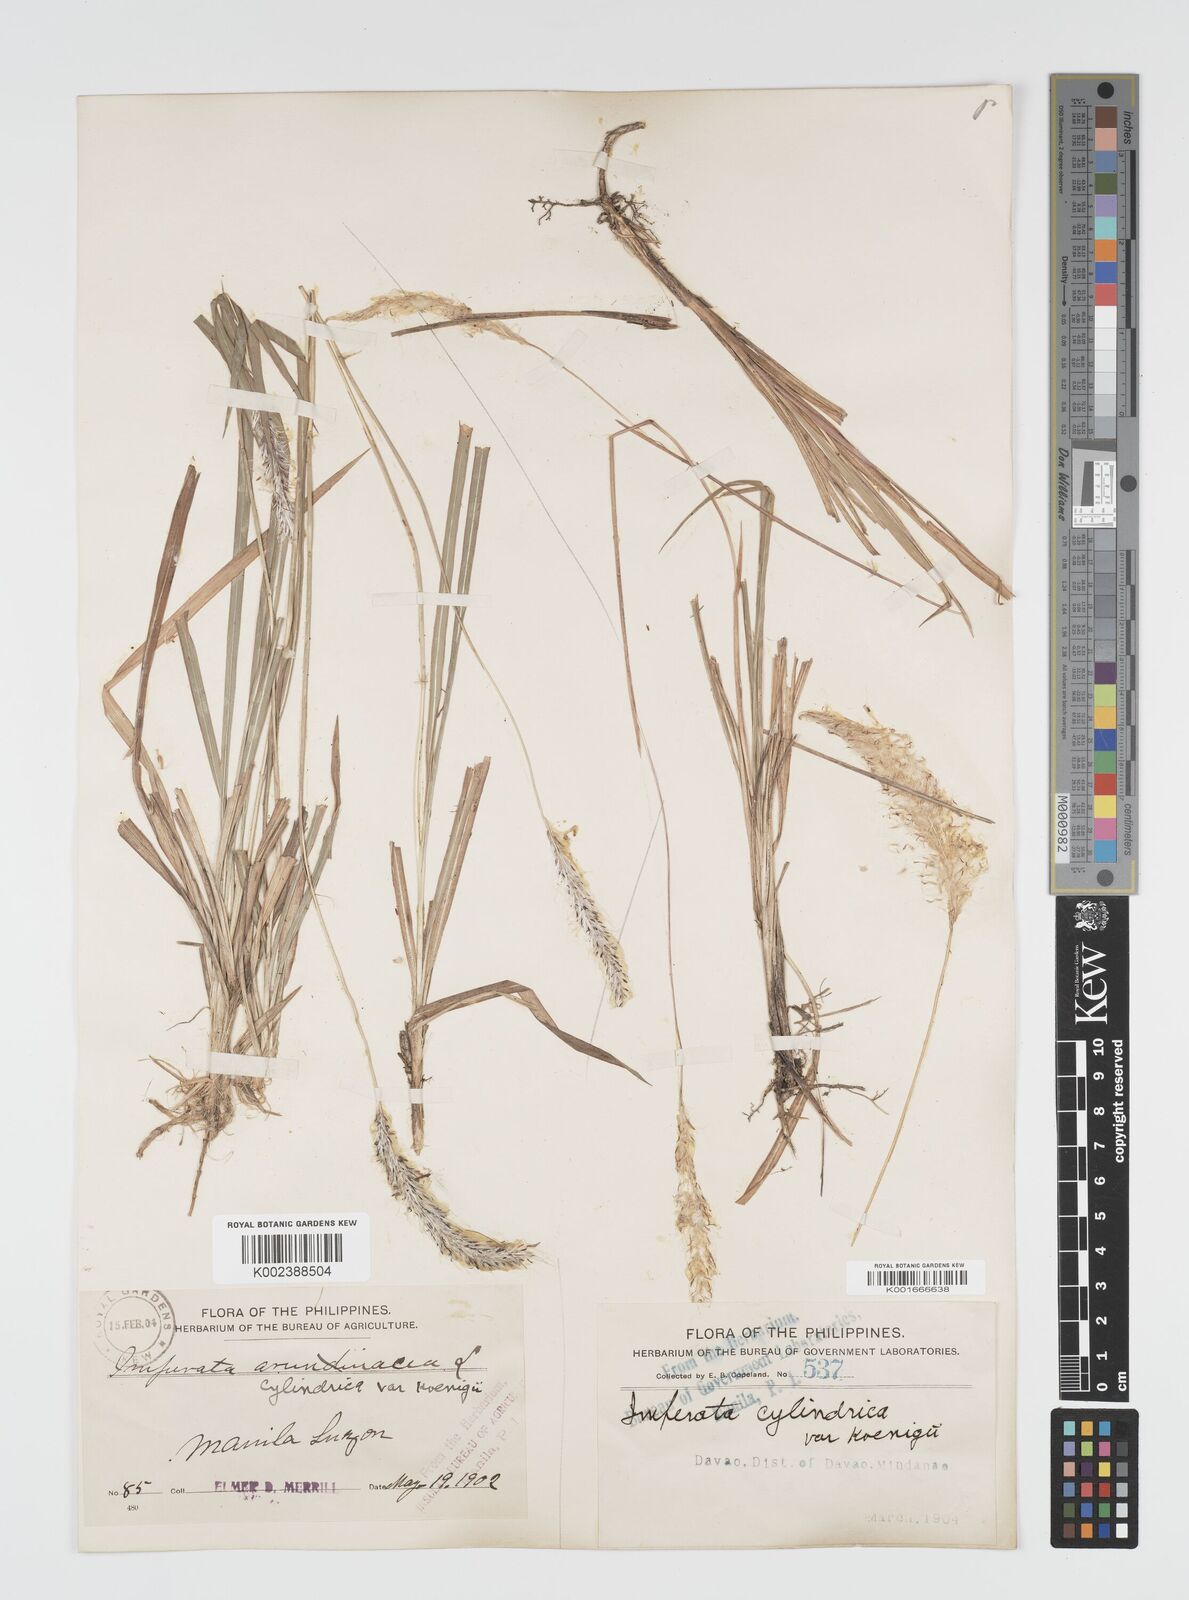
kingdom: Plantae
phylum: Tracheophyta
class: Liliopsida
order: Poales
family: Poaceae
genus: Imperata
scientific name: Imperata cylindrica
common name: Cogongrass
